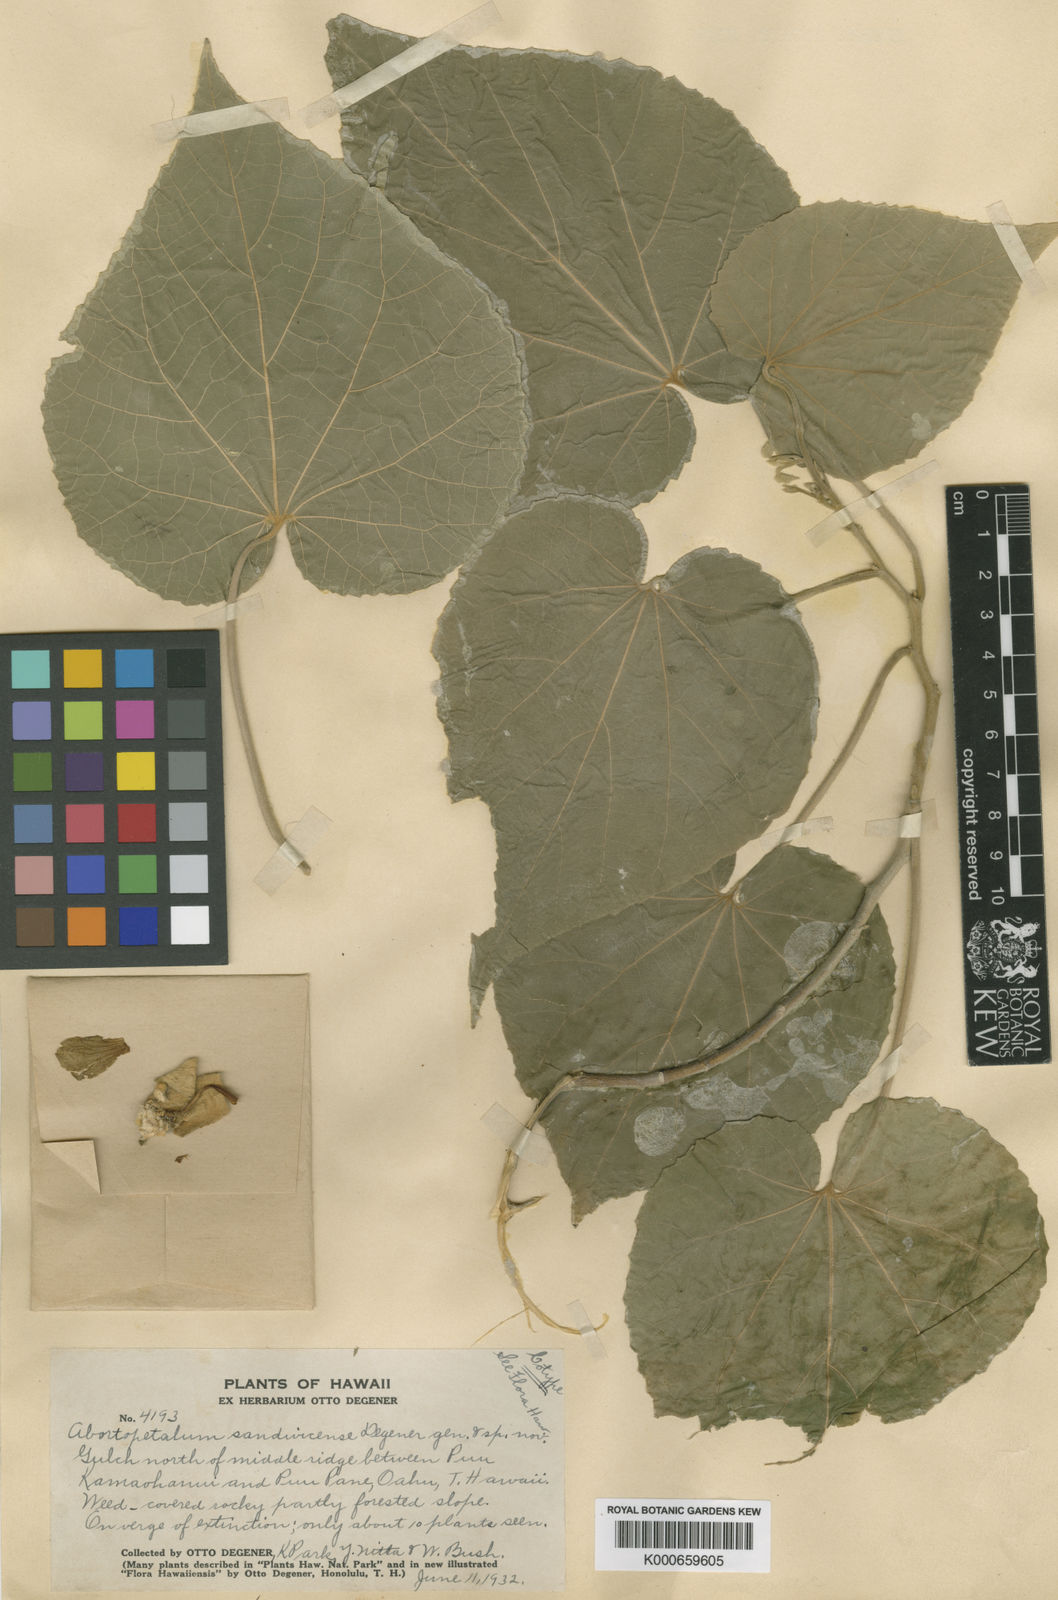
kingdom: Plantae
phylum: Tracheophyta
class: Magnoliopsida
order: Malvales
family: Malvaceae
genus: Abutilon
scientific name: Abutilon sandwicense
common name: Greenflower indian mallow
